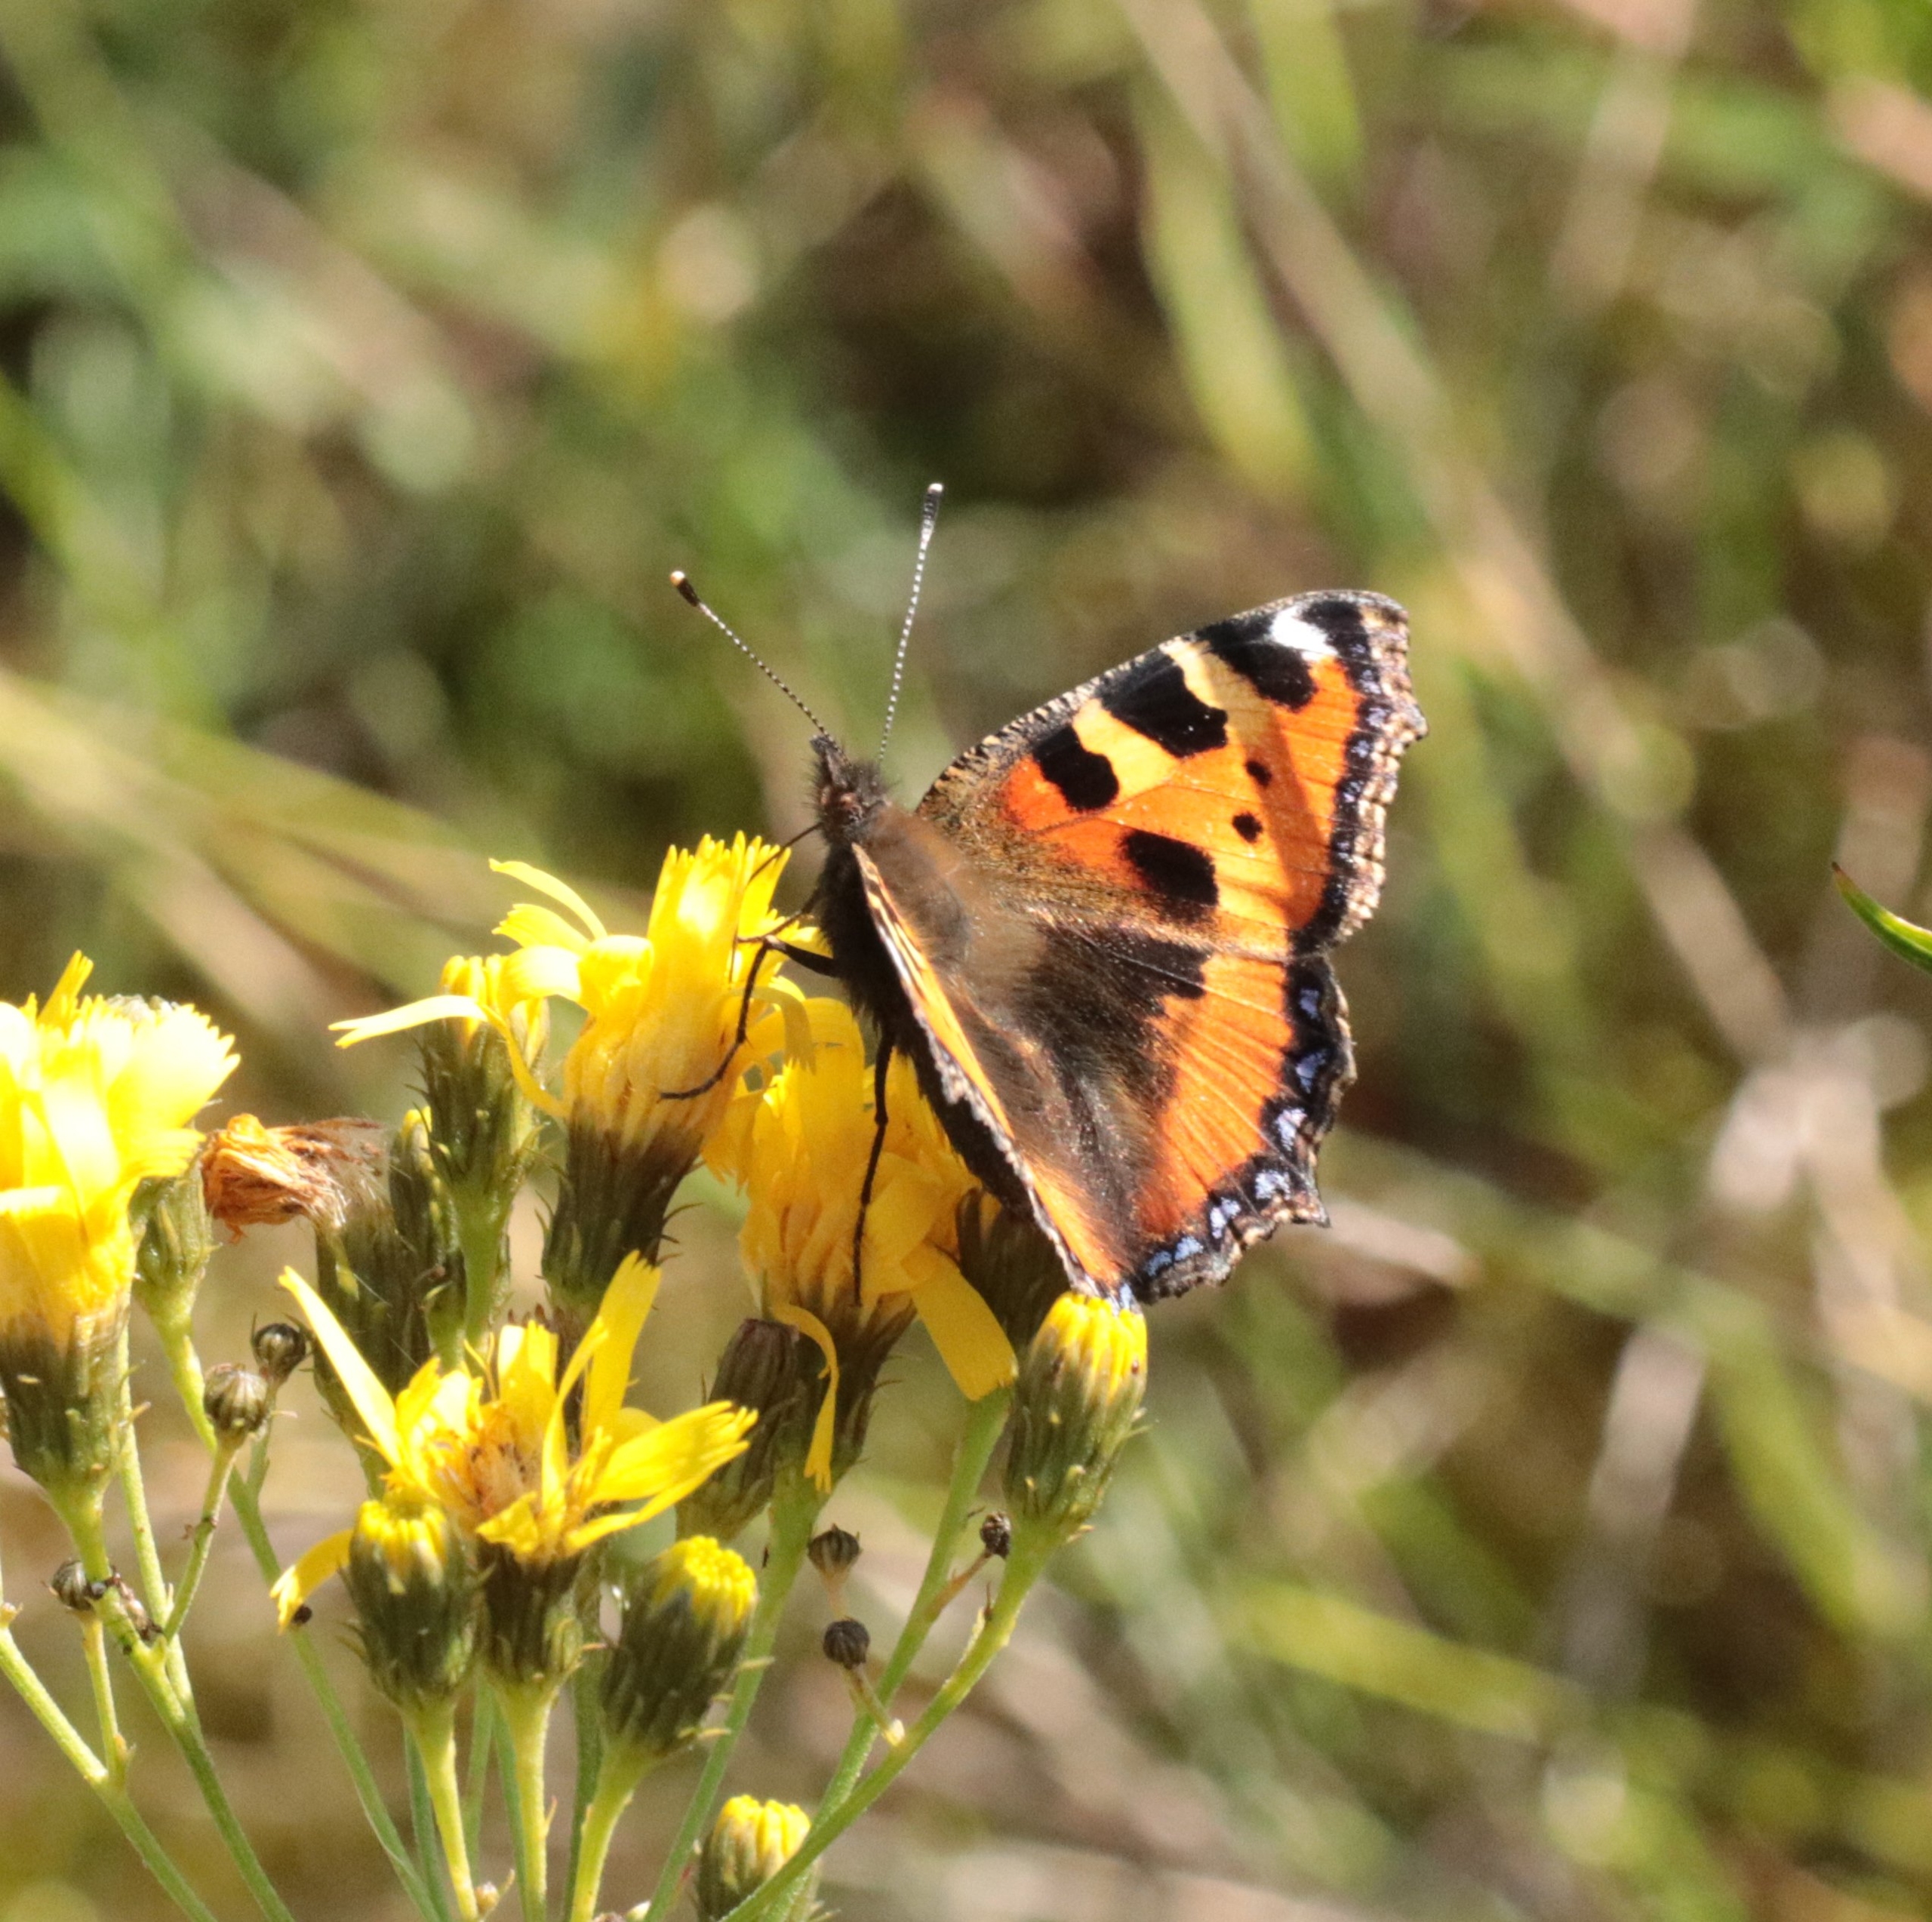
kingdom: Animalia
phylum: Arthropoda
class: Insecta
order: Lepidoptera
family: Nymphalidae
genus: Aglais
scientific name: Aglais urticae
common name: Nældens takvinge
